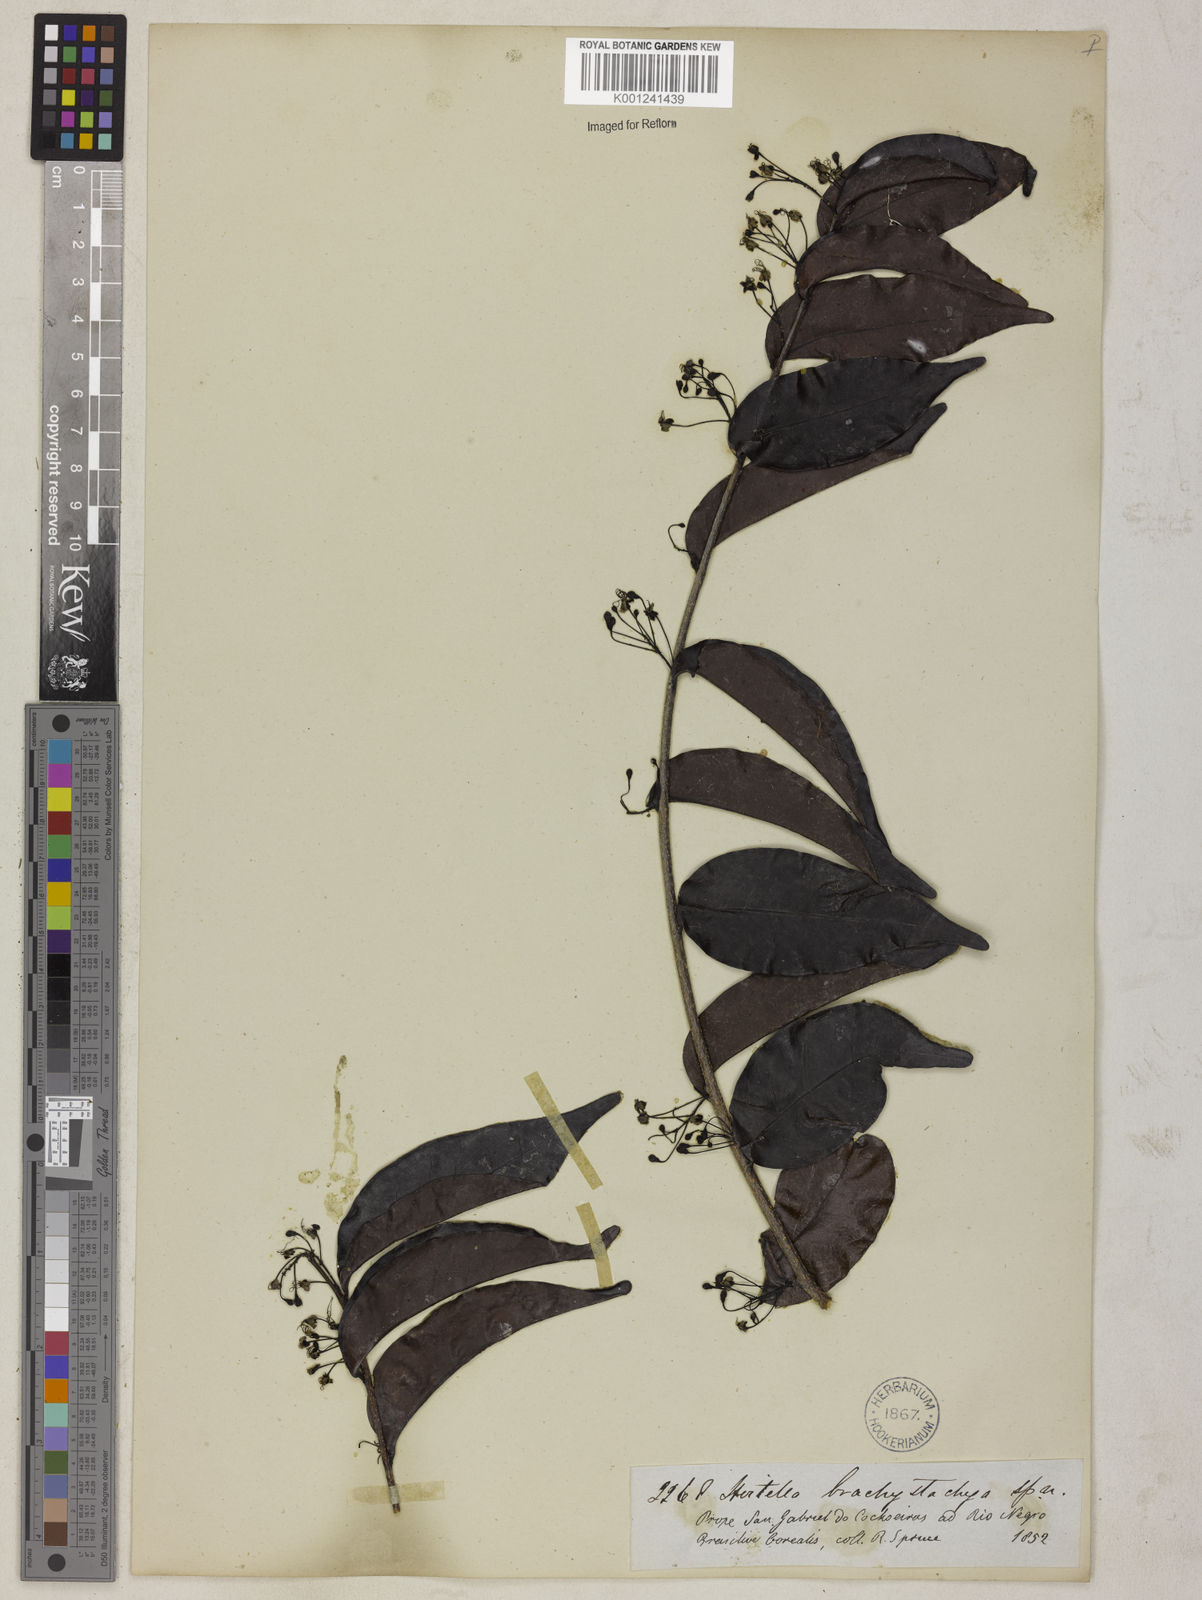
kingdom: Plantae
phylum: Tracheophyta
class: Magnoliopsida
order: Malpighiales
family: Chrysobalanaceae
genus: Hirtella
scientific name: Hirtella brachystachya
